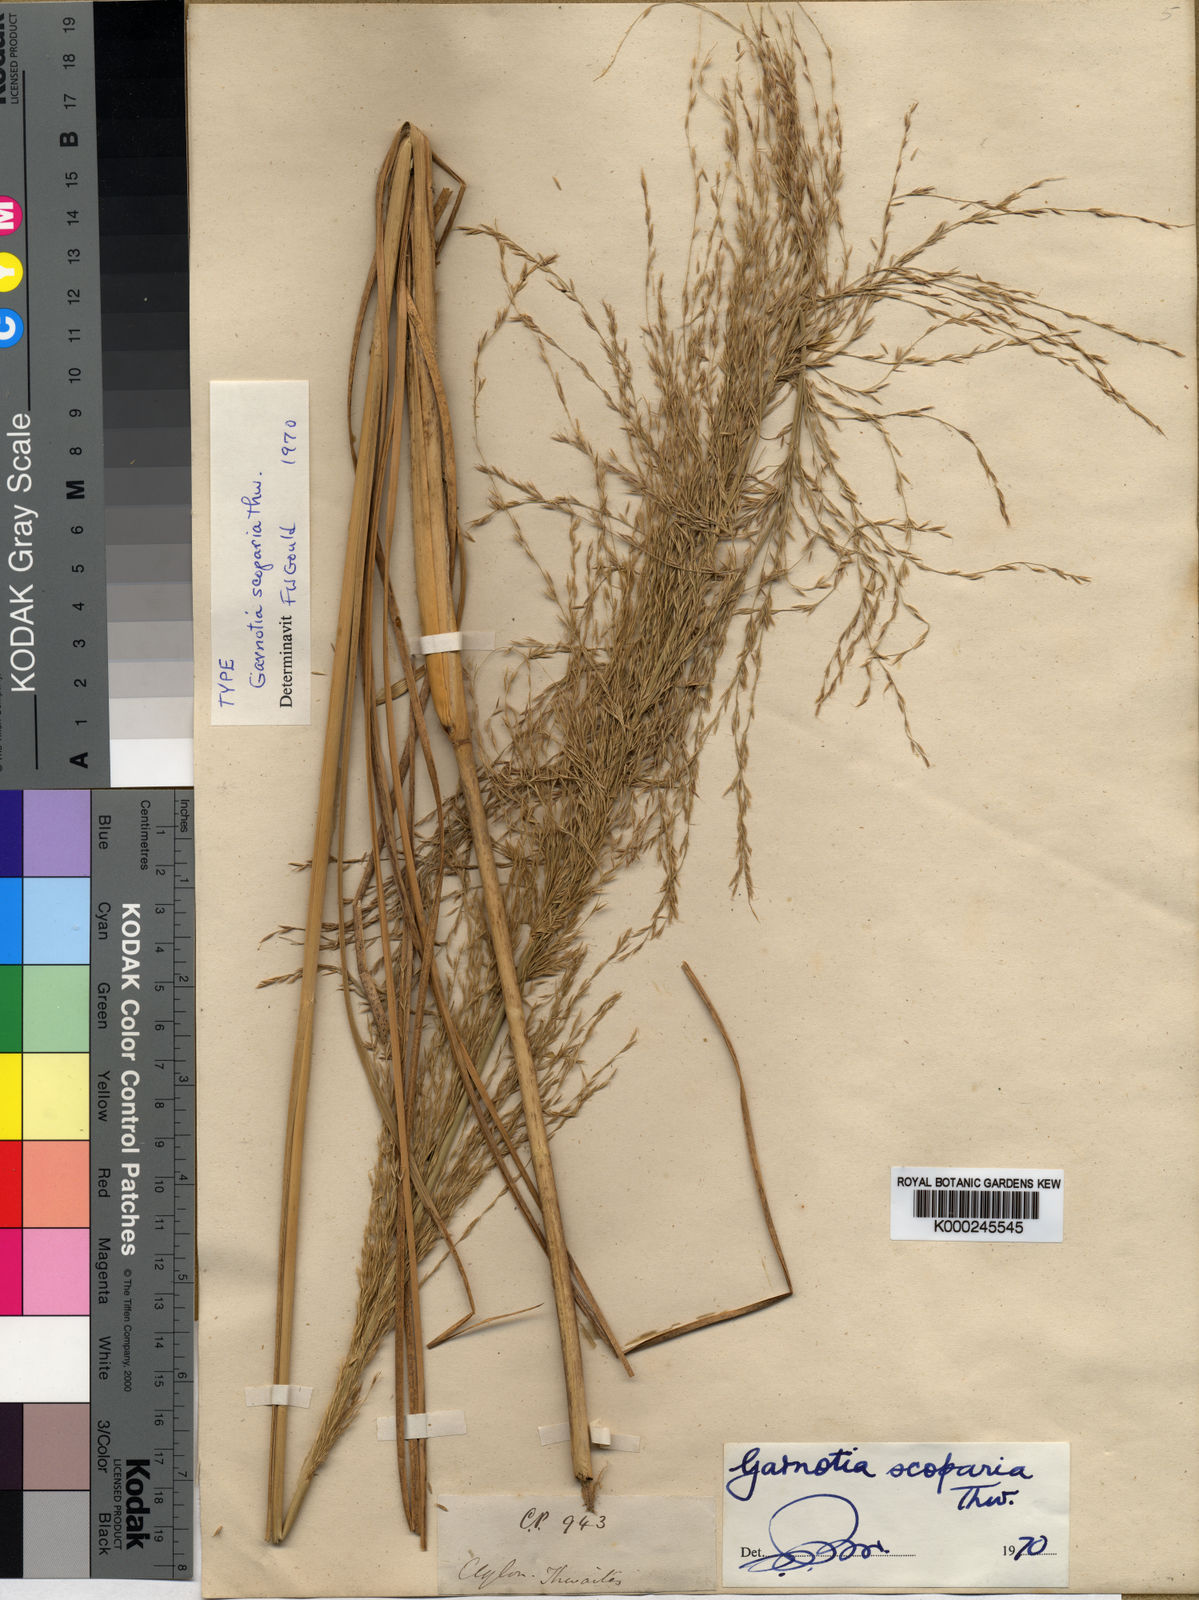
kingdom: Plantae
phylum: Tracheophyta
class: Liliopsida
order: Poales
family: Poaceae
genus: Garnotia
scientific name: Garnotia scoparia
